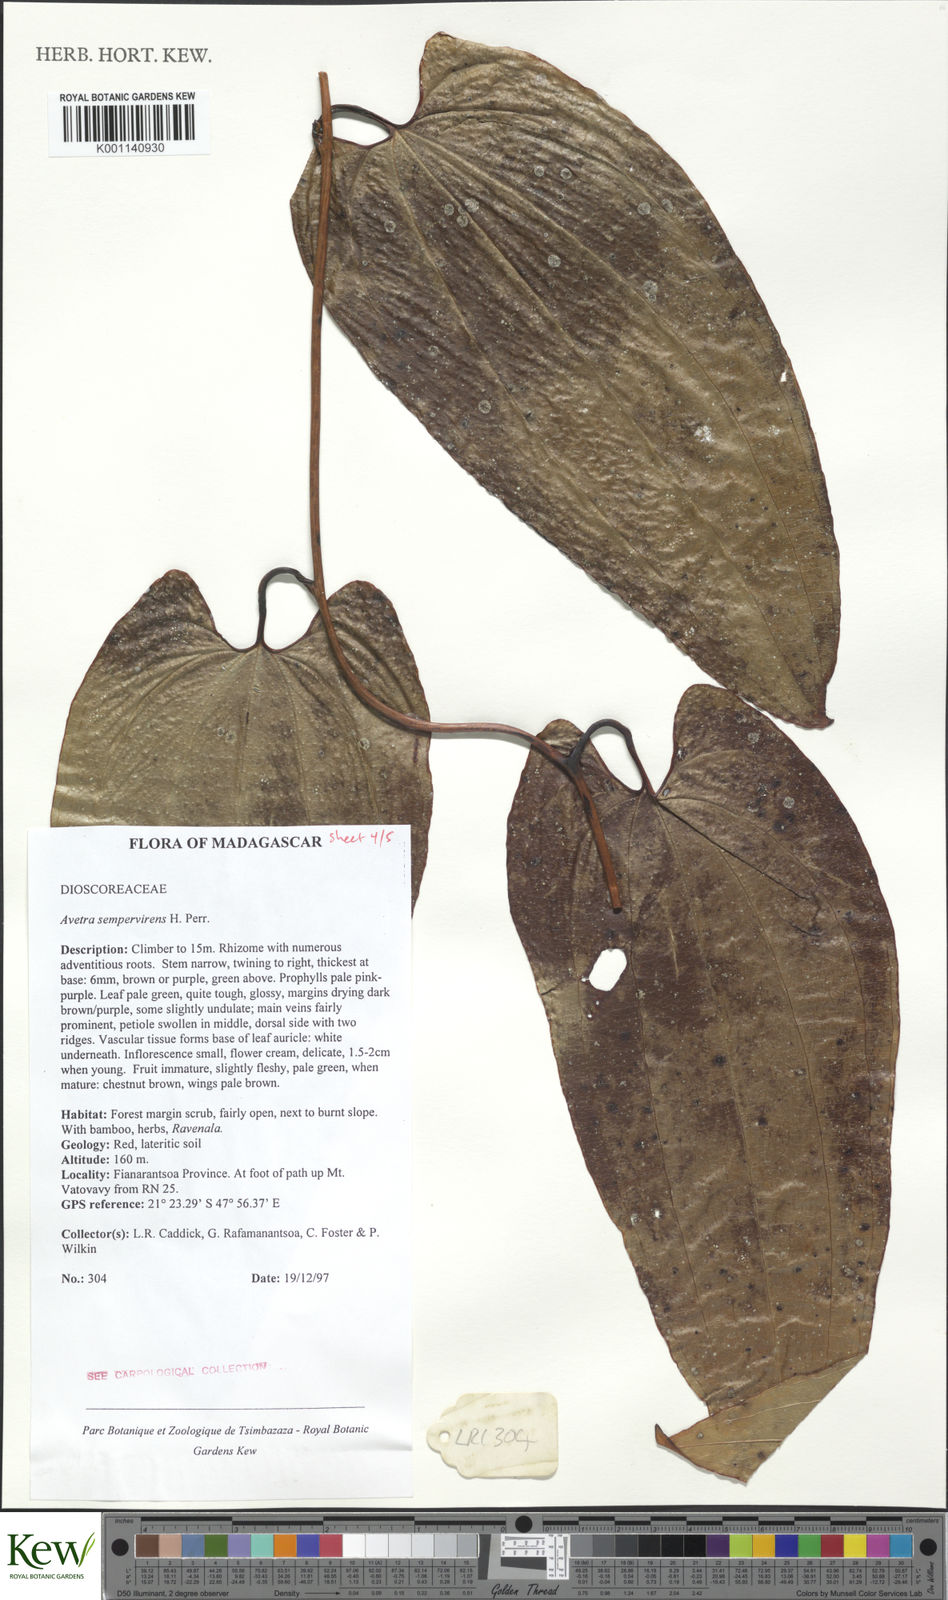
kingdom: Plantae
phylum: Tracheophyta
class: Liliopsida
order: Dioscoreales
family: Dioscoreaceae
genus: Trichopus
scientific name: Trichopus sempervirens
